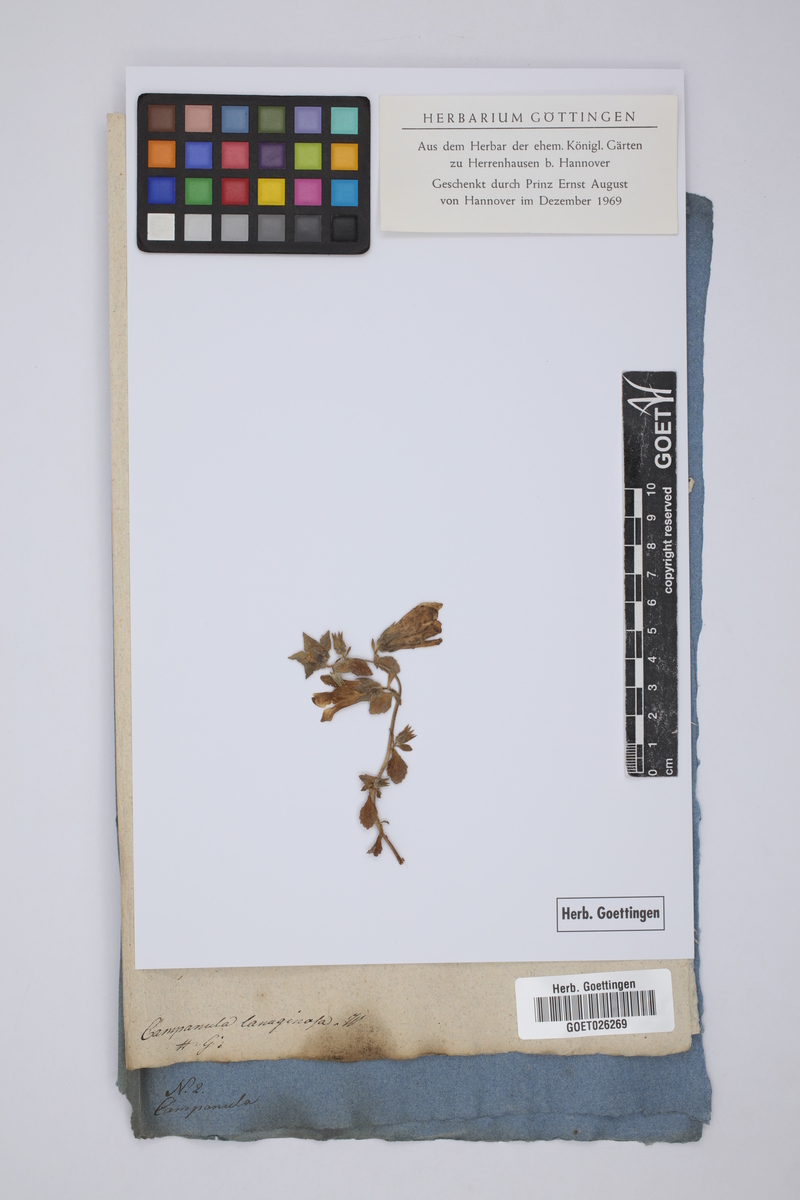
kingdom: Plantae
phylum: Tracheophyta
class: Magnoliopsida
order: Asterales
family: Campanulaceae
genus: Campanula
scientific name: Campanula rupestris
